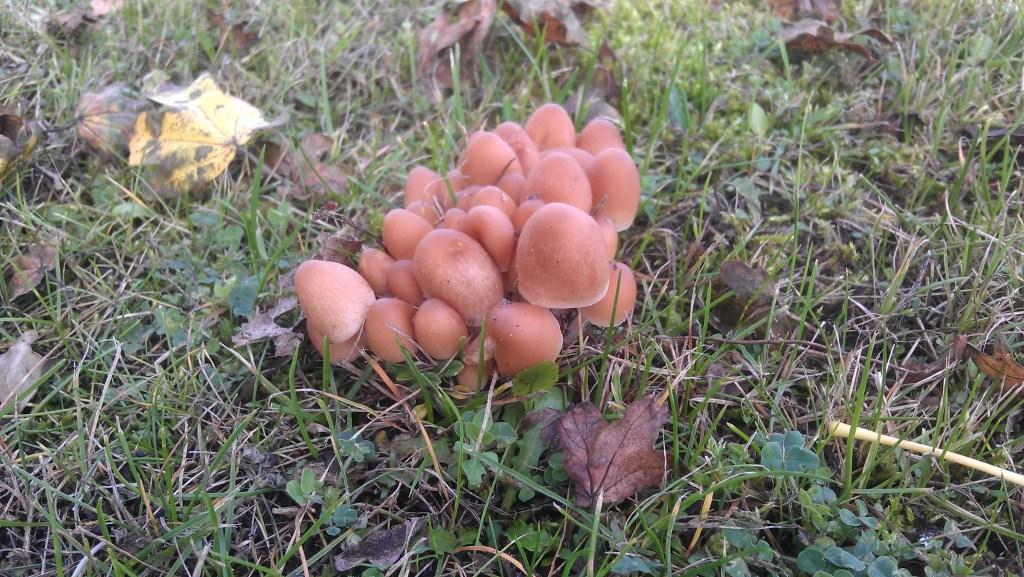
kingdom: Fungi
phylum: Basidiomycota
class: Agaricomycetes
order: Agaricales
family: Psathyrellaceae
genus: Britzelmayria
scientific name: Britzelmayria multipedata
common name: knippe-mørkhat
